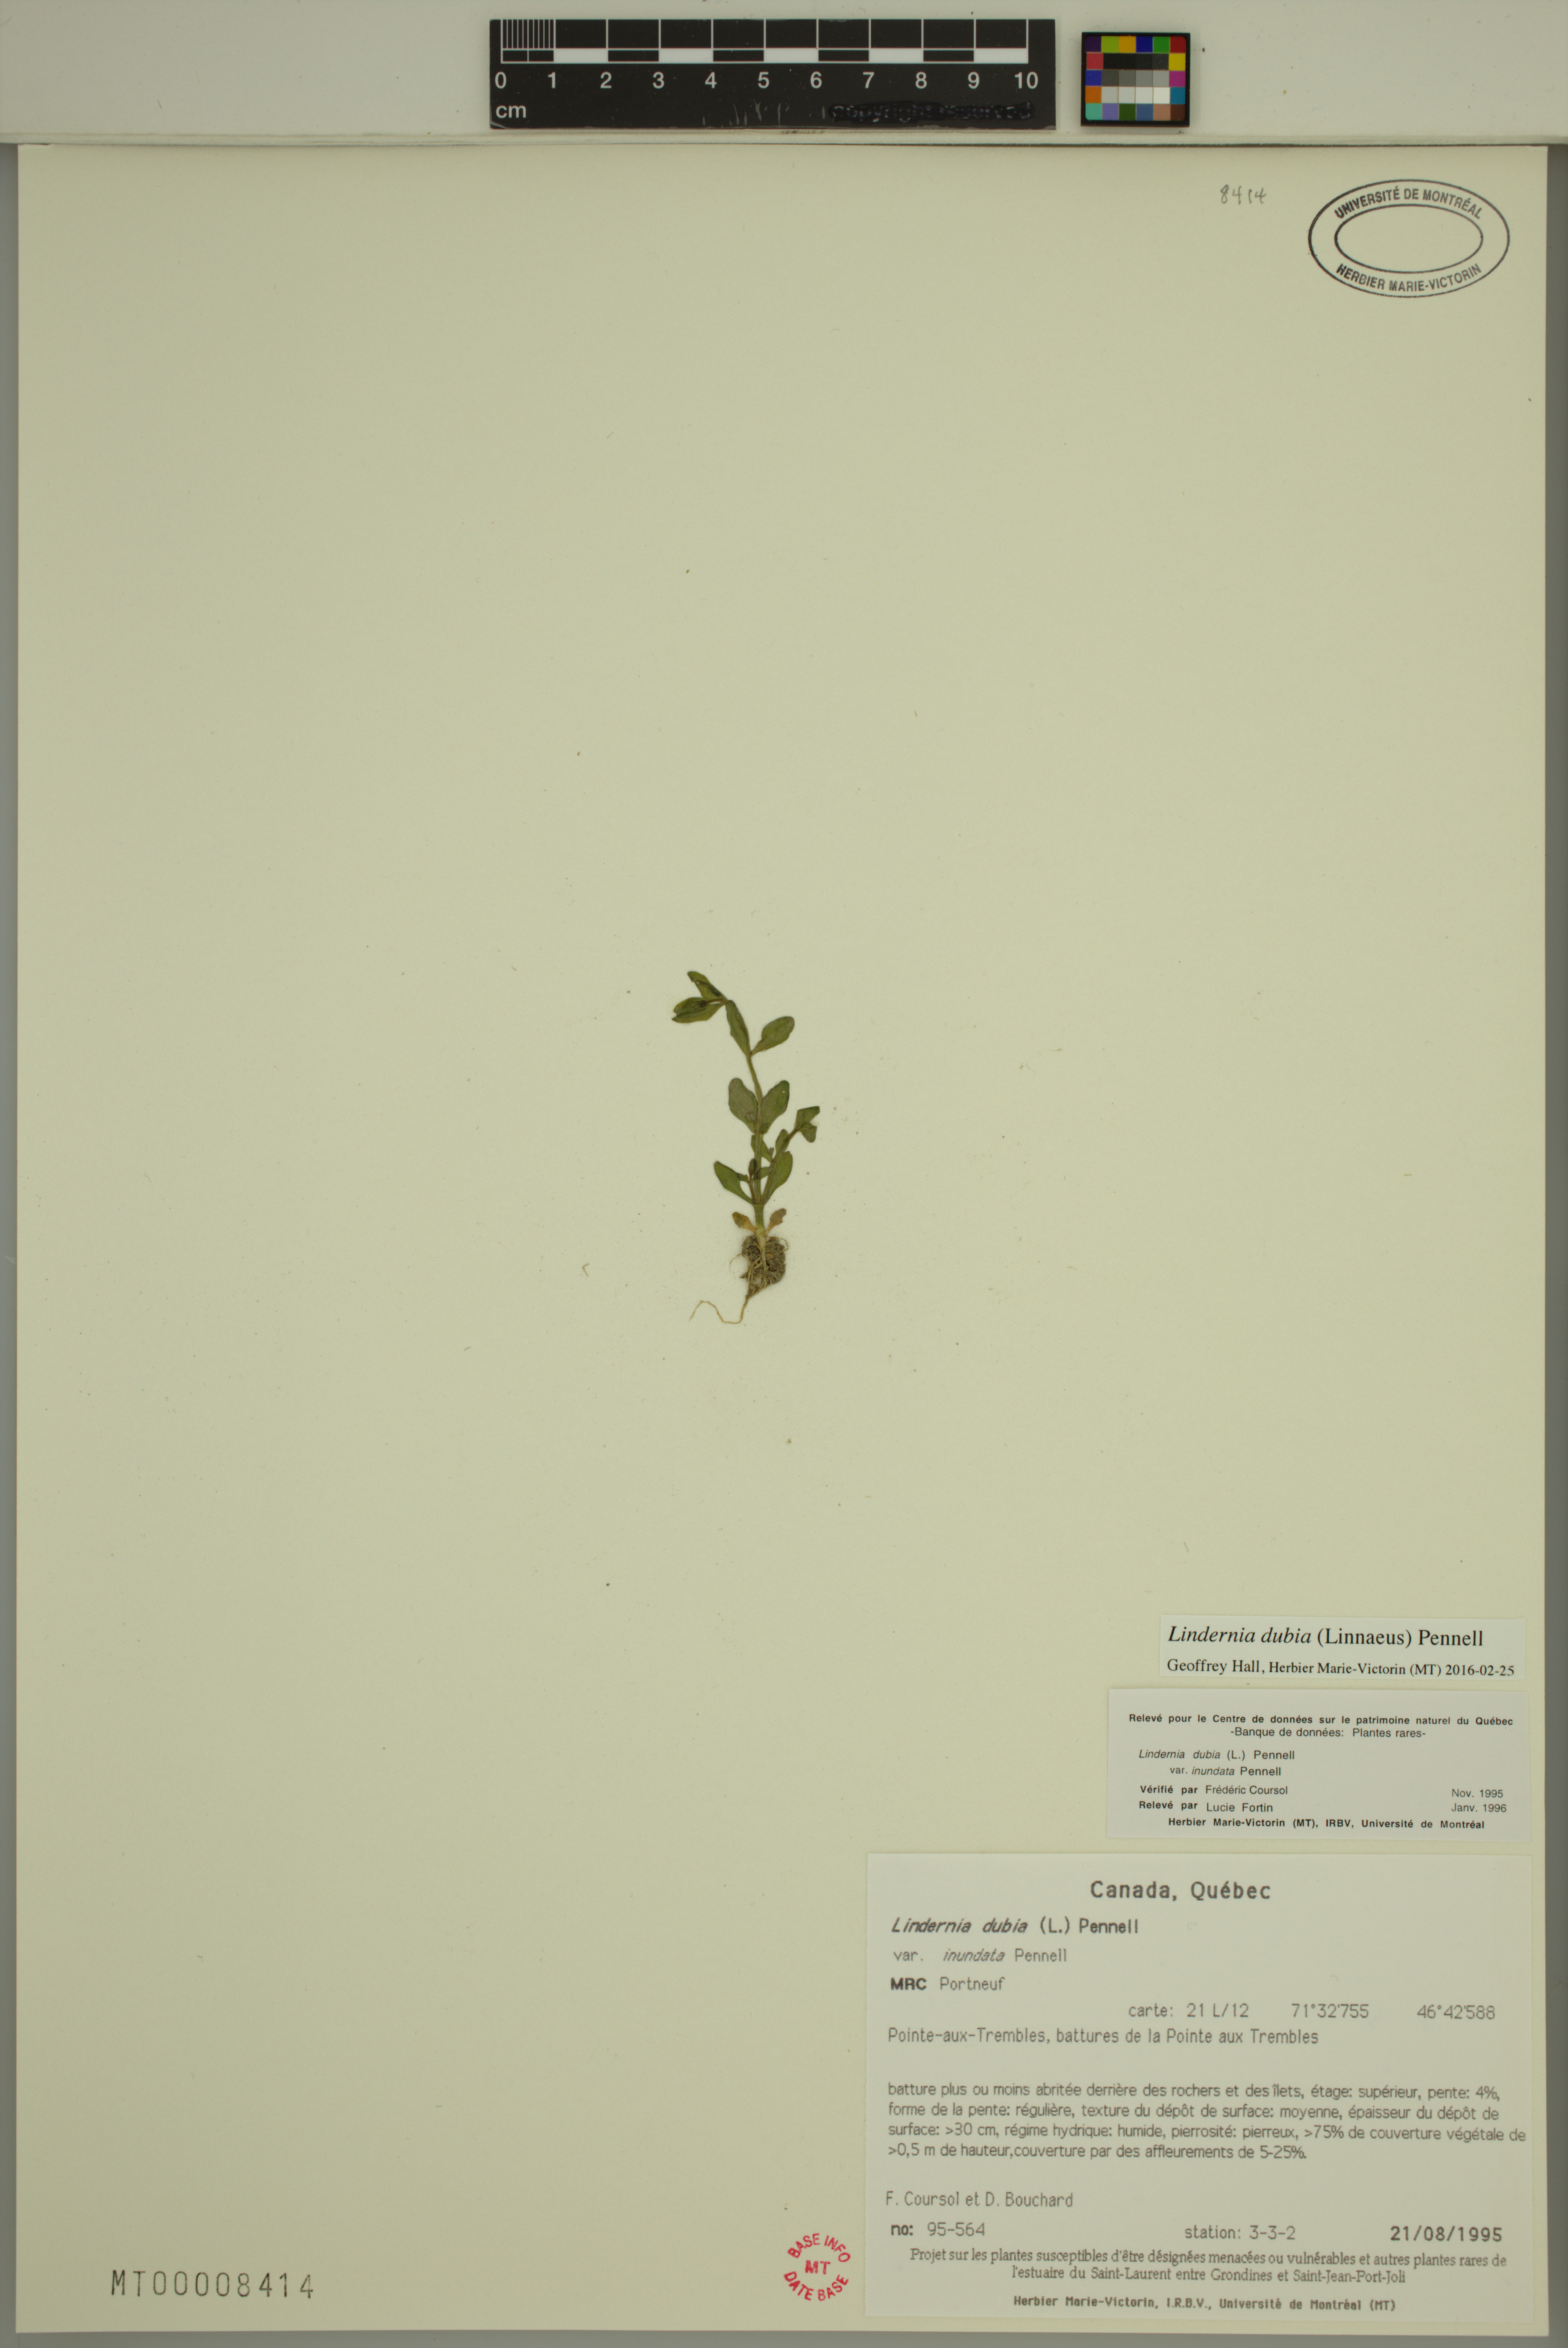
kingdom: Plantae
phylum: Tracheophyta
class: Magnoliopsida
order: Lamiales
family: Linderniaceae
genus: Lindernia
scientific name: Lindernia dubia
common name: Annual false pimpernel
